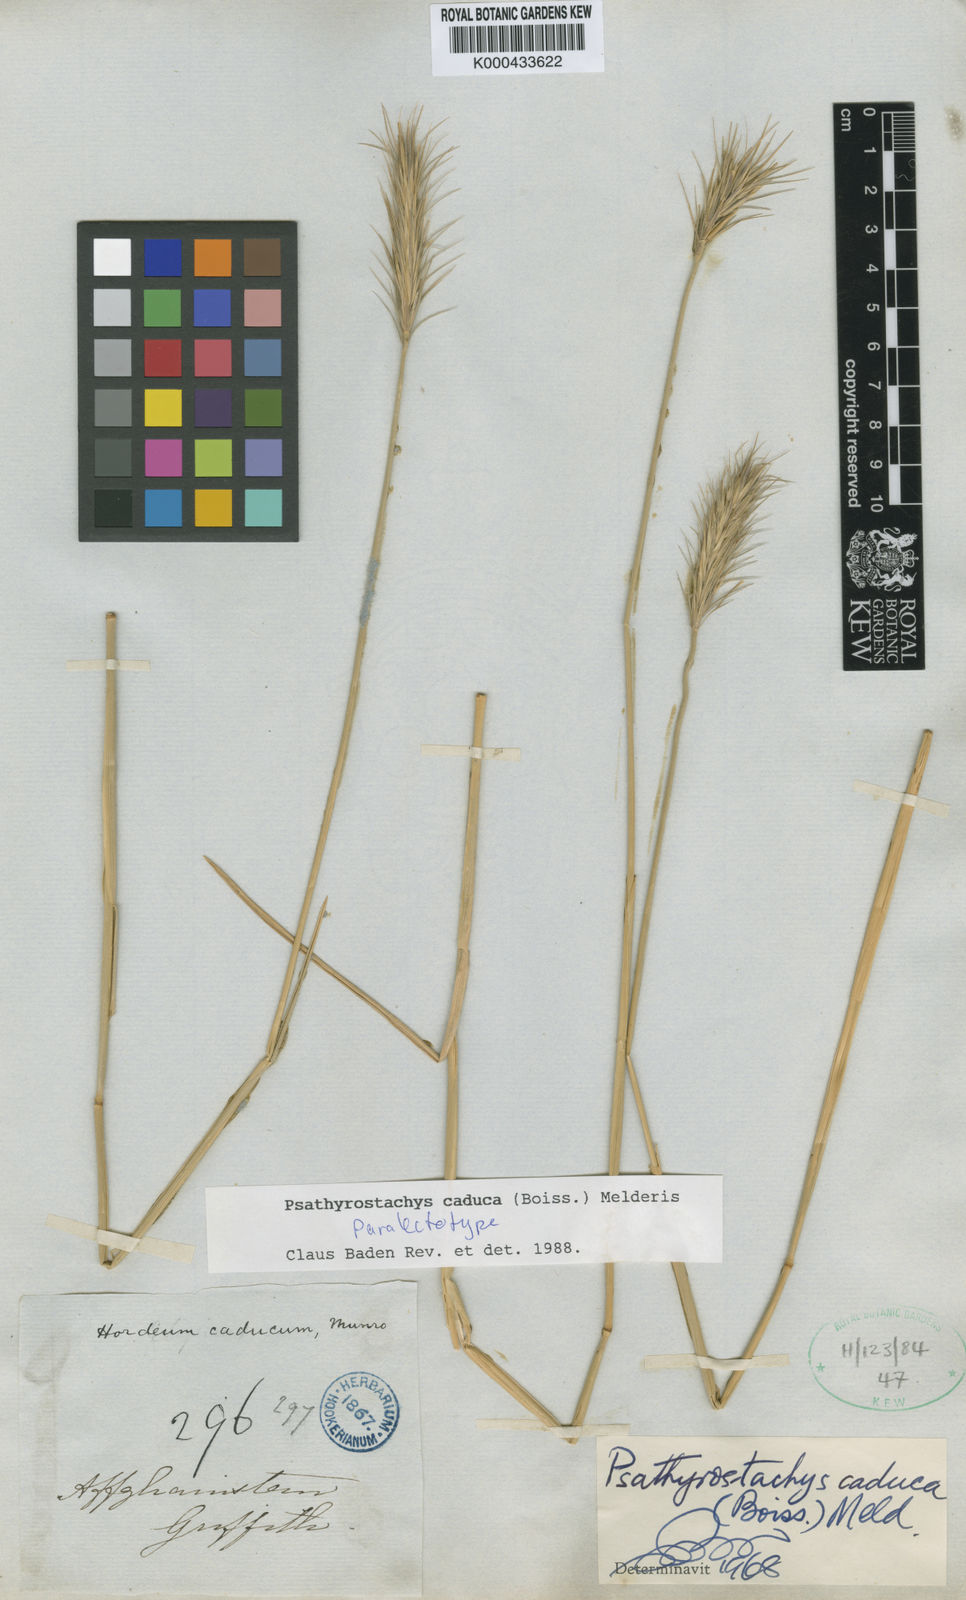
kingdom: Plantae
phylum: Tracheophyta
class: Liliopsida
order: Poales
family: Poaceae
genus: Psathyrostachys
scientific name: Psathyrostachys caduca
